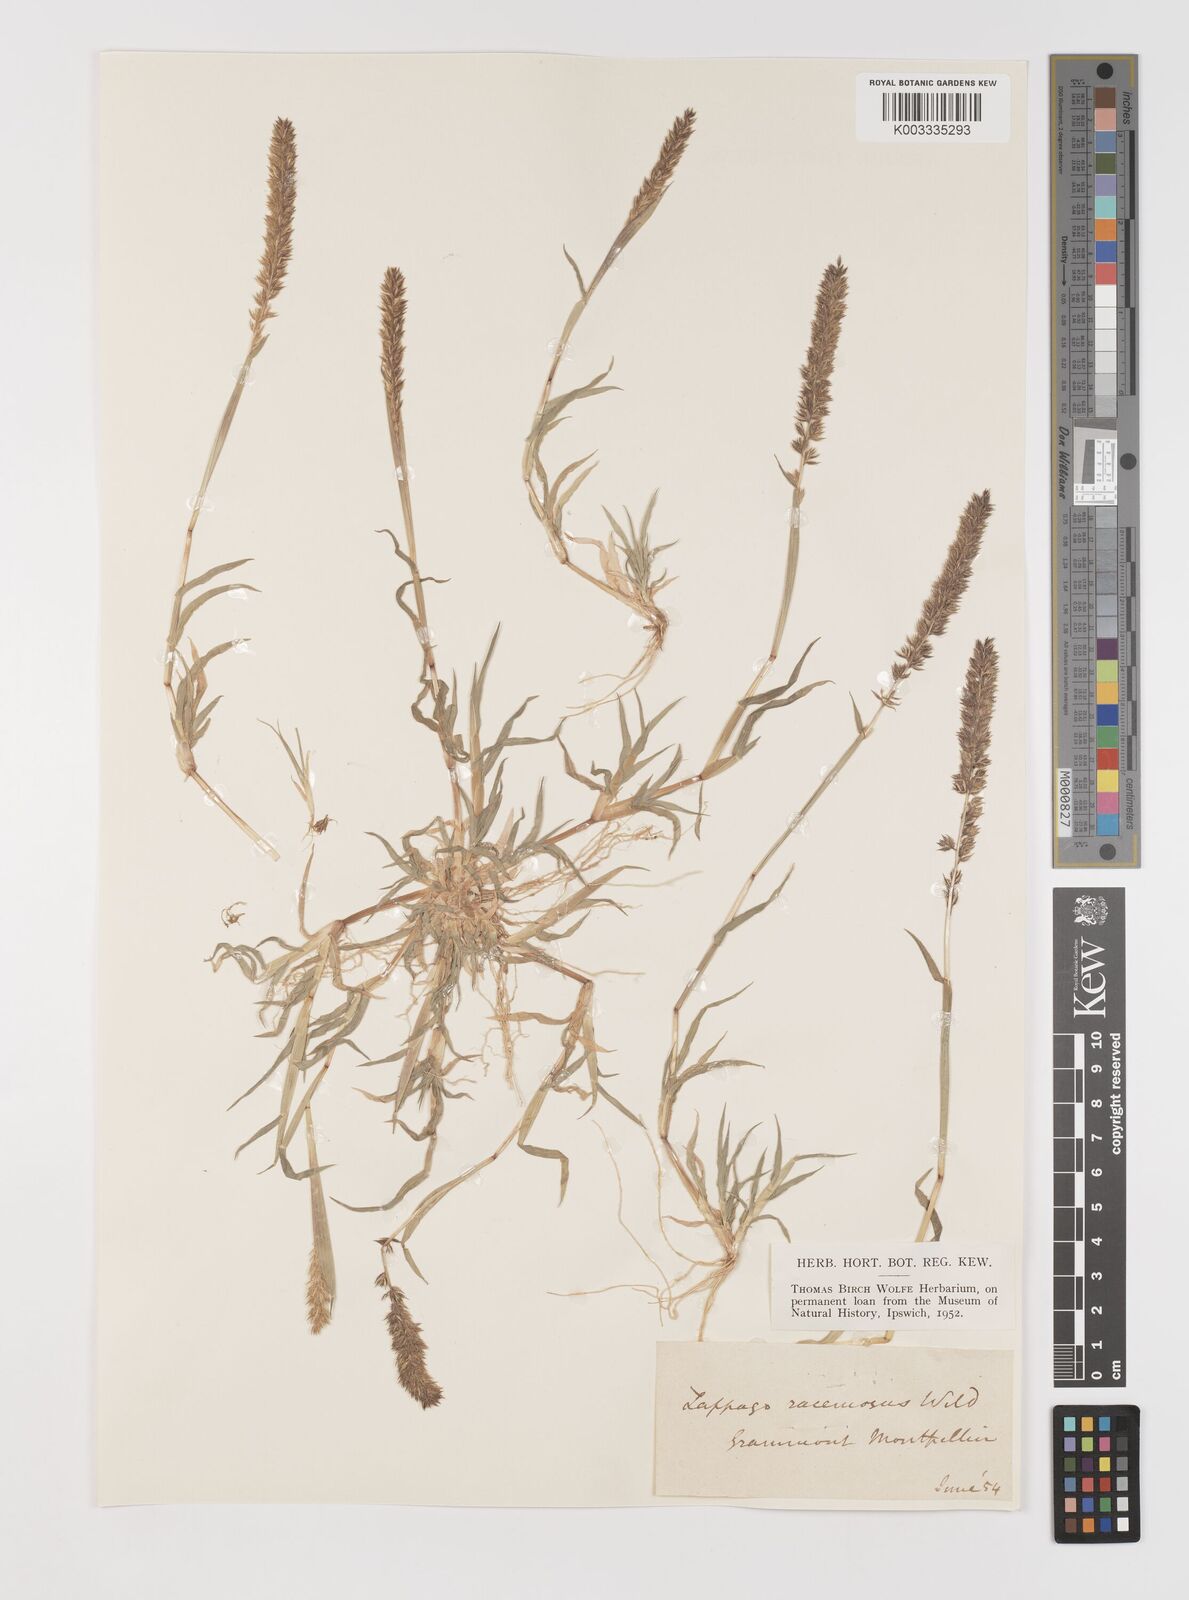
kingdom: Plantae
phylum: Tracheophyta
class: Liliopsida
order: Poales
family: Poaceae
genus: Tragus
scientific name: Tragus racemosus
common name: European bur-grass
